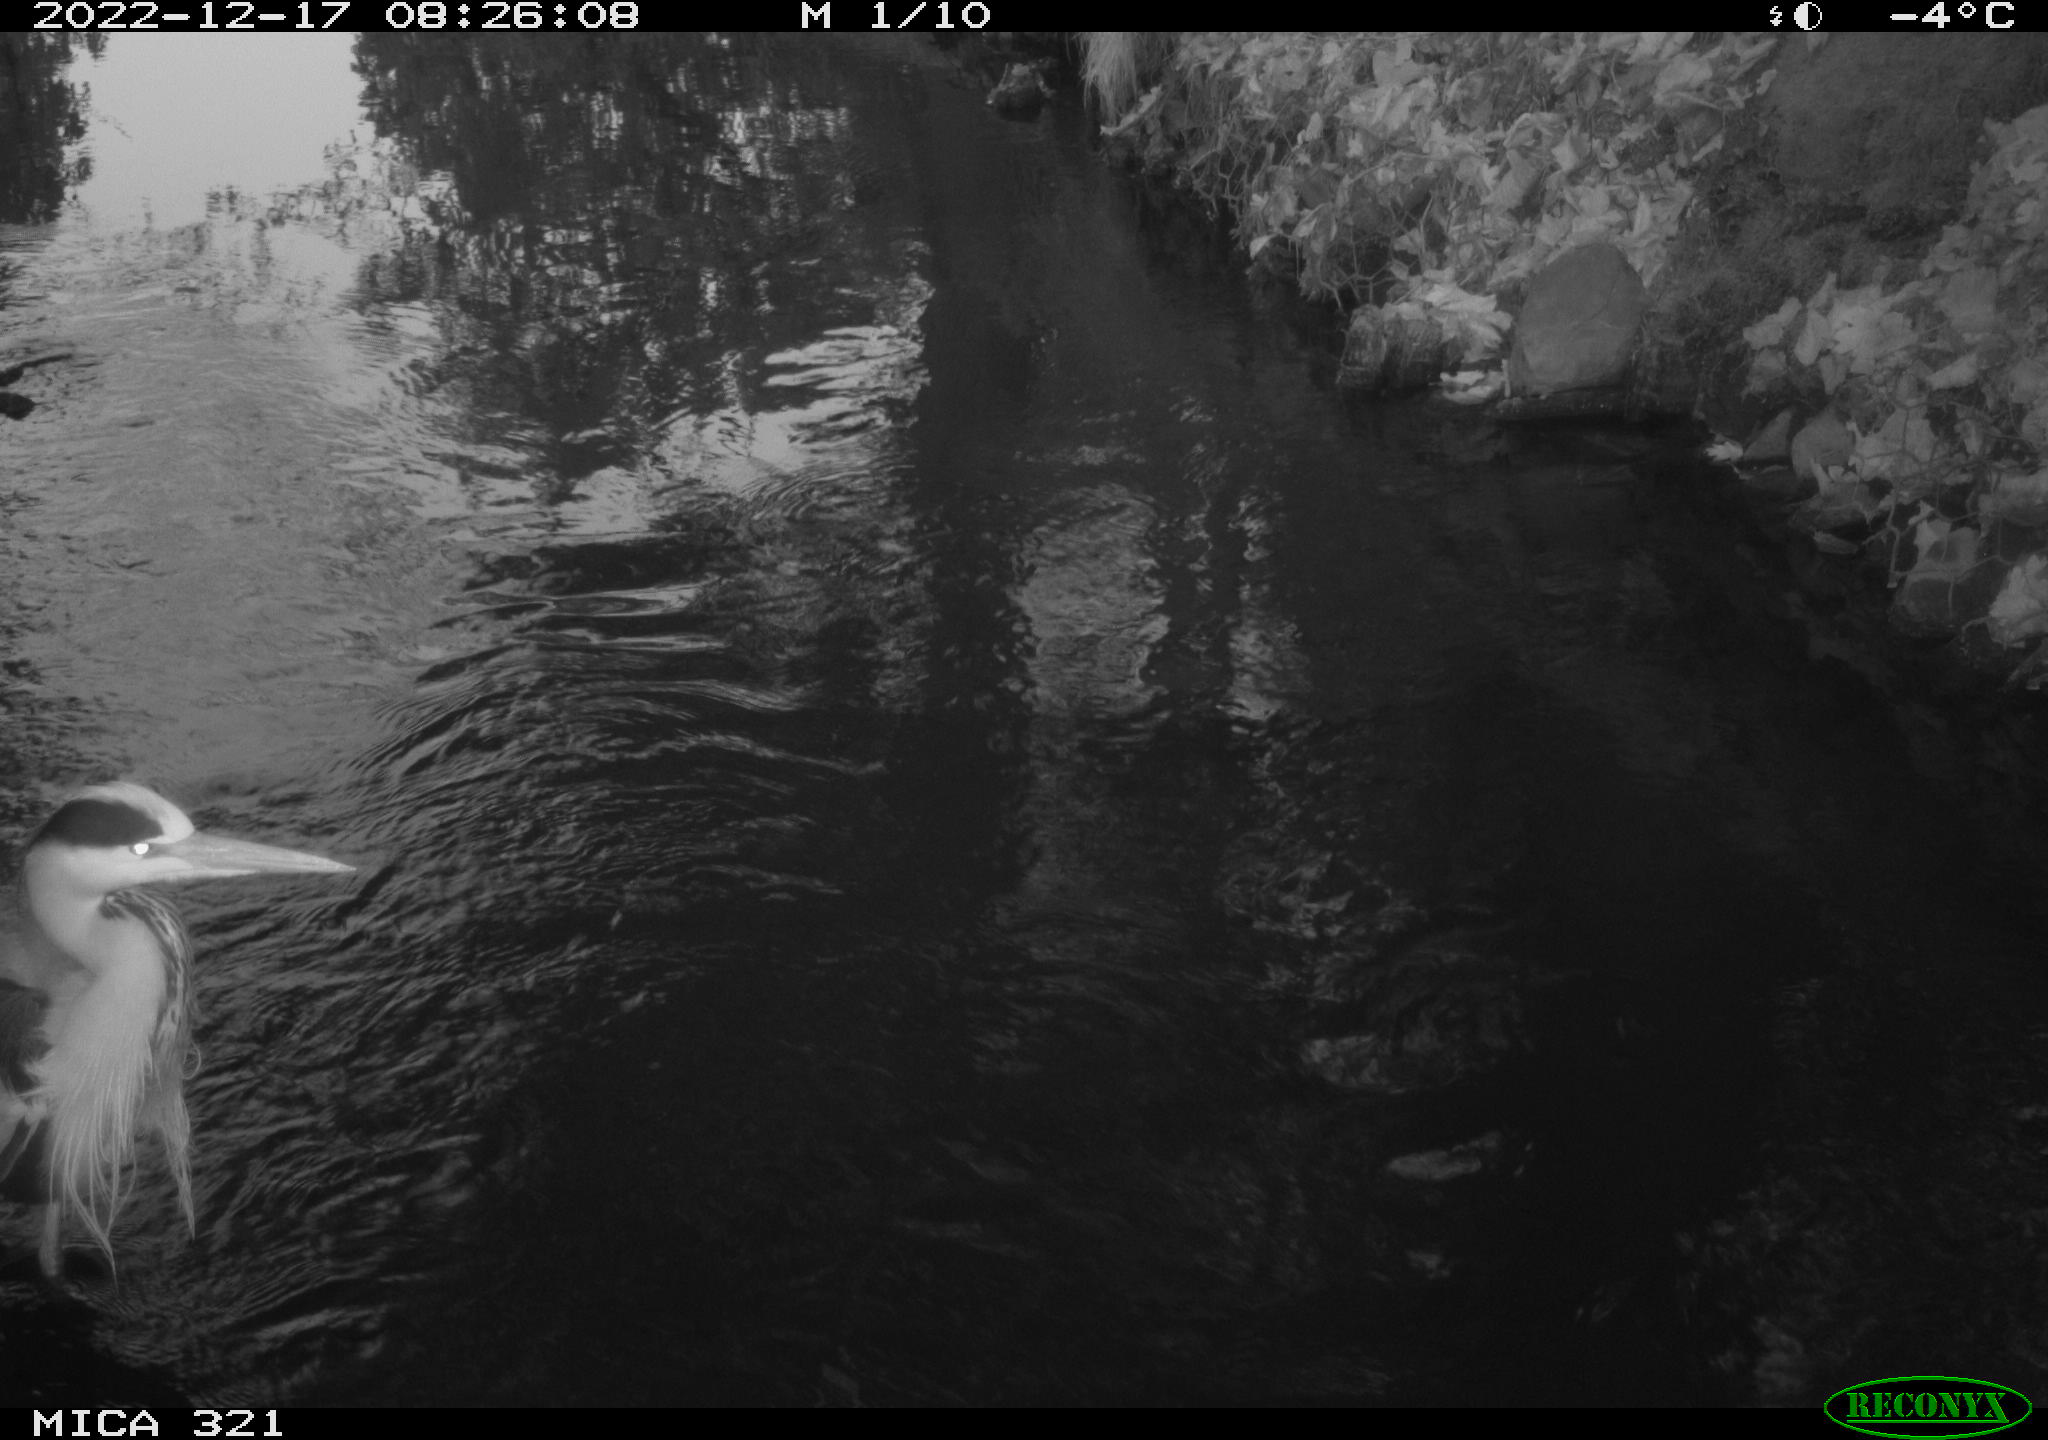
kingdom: Animalia
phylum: Chordata
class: Aves
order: Pelecaniformes
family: Ardeidae
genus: Ardea
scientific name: Ardea cinerea
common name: Grey heron
